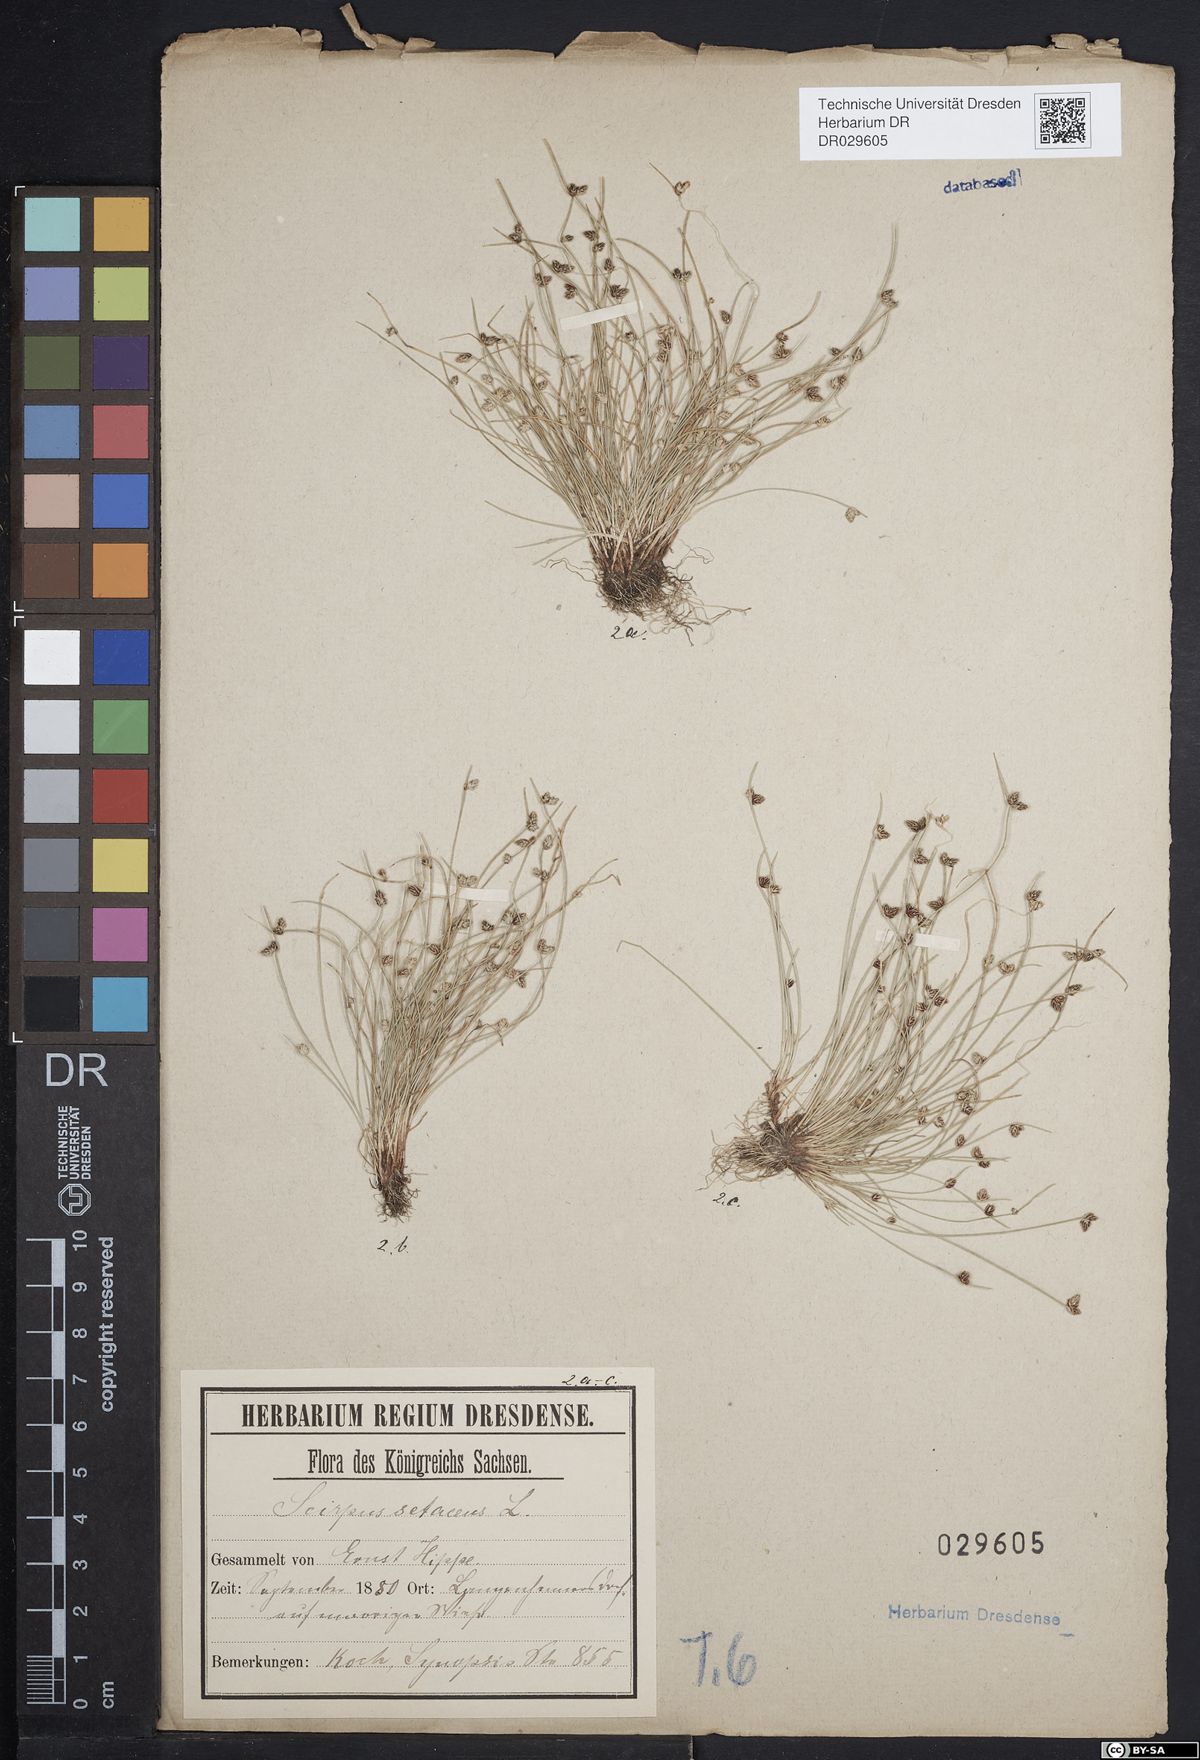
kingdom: Plantae
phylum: Tracheophyta
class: Liliopsida
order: Poales
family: Cyperaceae
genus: Isolepis
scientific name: Isolepis setacea
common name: Bristle club-rush
